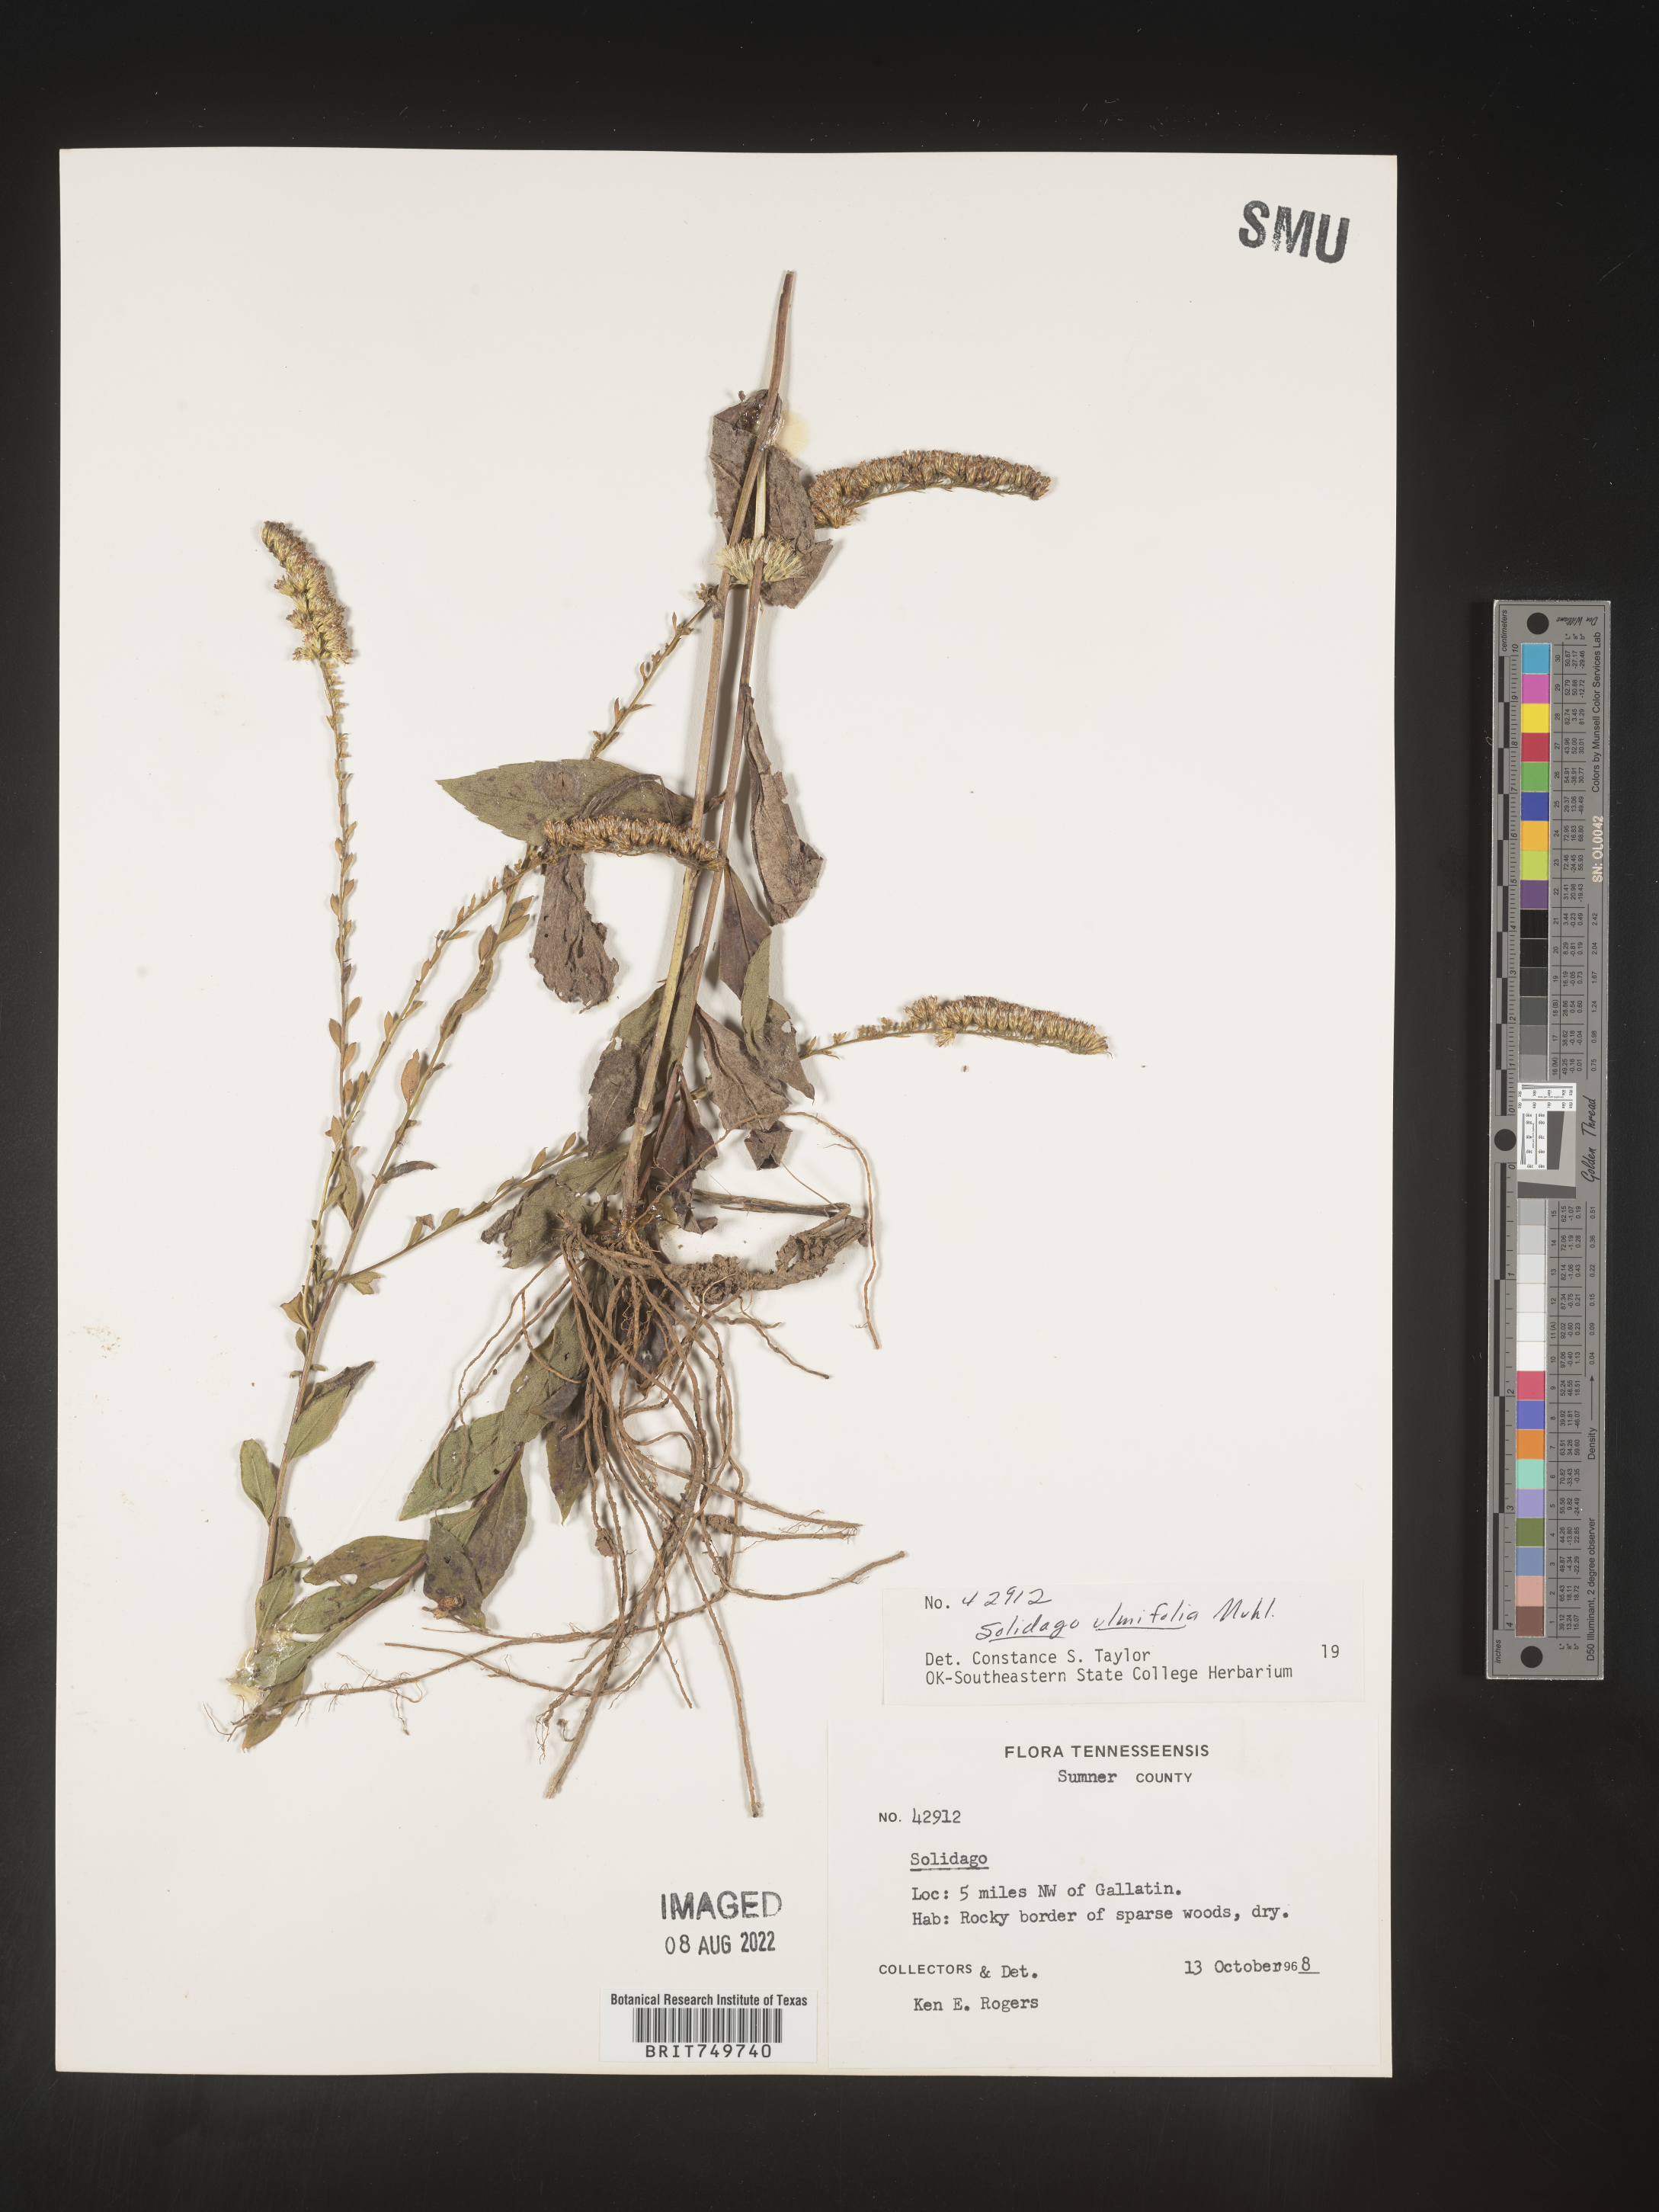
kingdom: Plantae
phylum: Tracheophyta
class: Magnoliopsida
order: Asterales
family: Asteraceae
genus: Solidago
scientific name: Solidago ulmifolia
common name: Elm-leaf goldenrod
